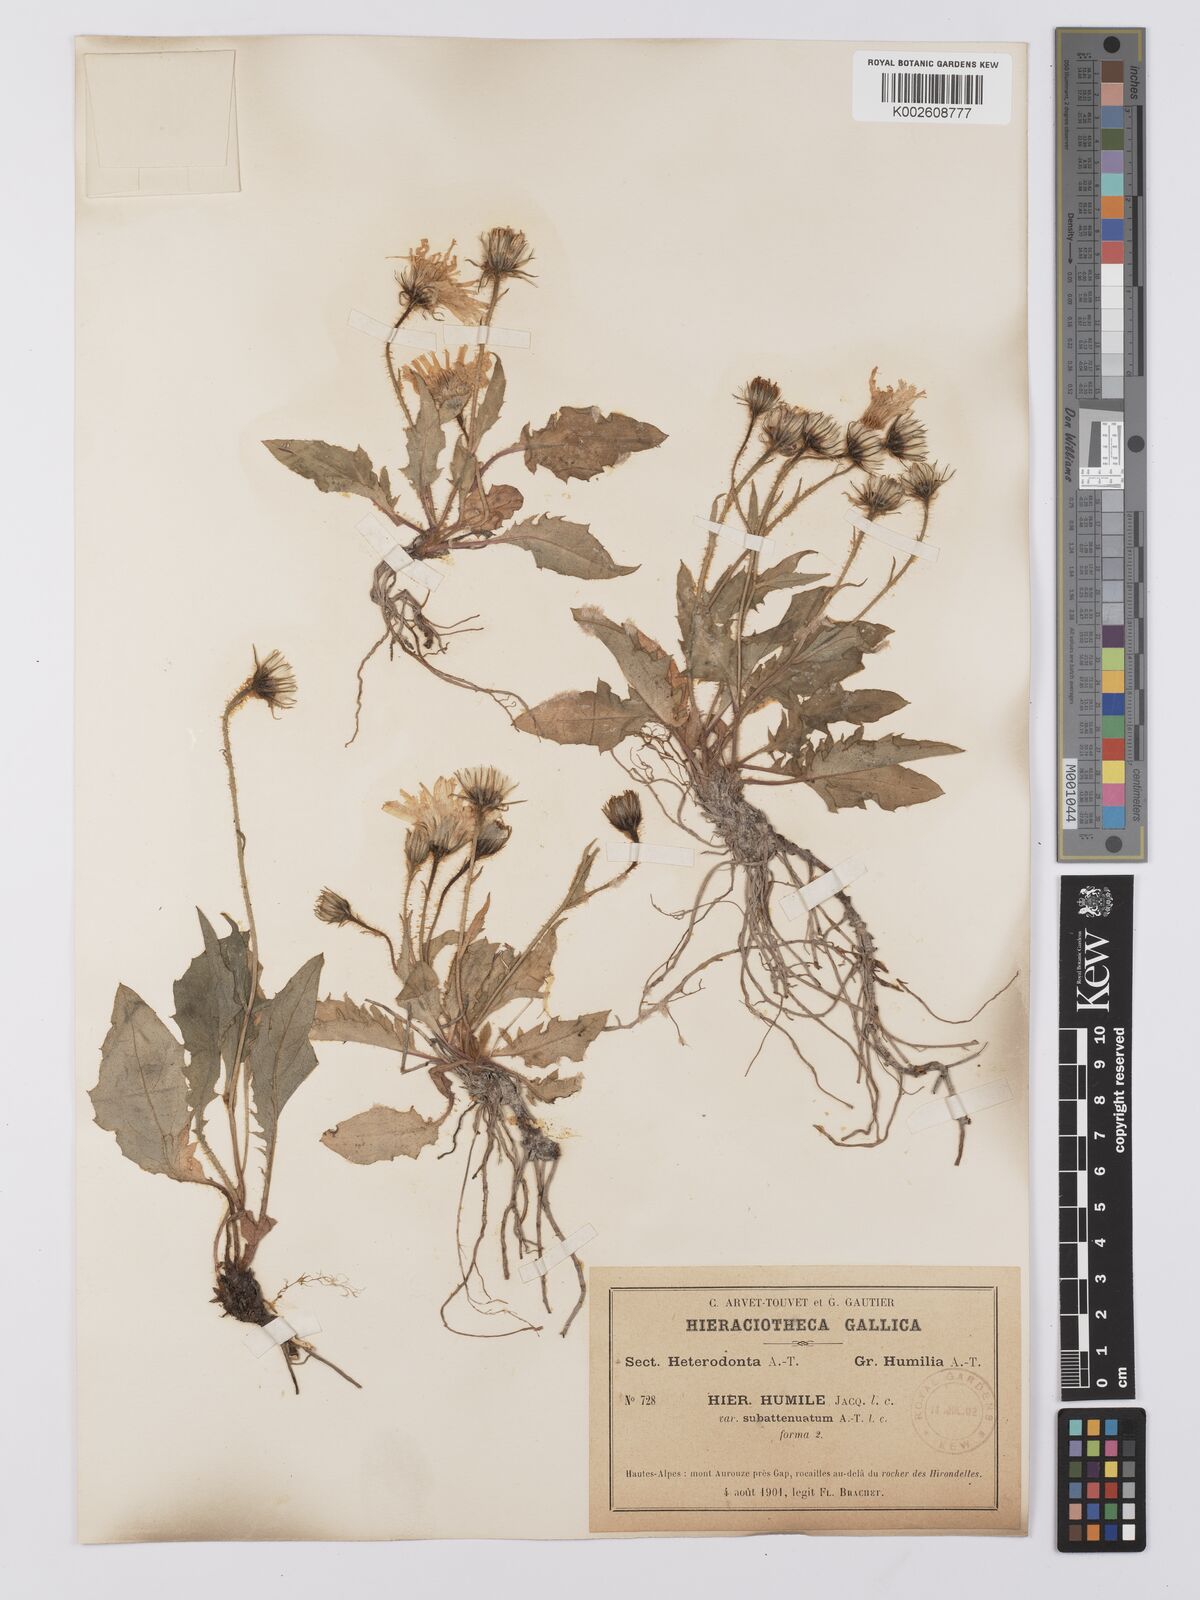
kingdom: Plantae
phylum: Tracheophyta
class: Magnoliopsida
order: Asterales
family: Asteraceae
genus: Hieracium
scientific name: Hieracium humile
